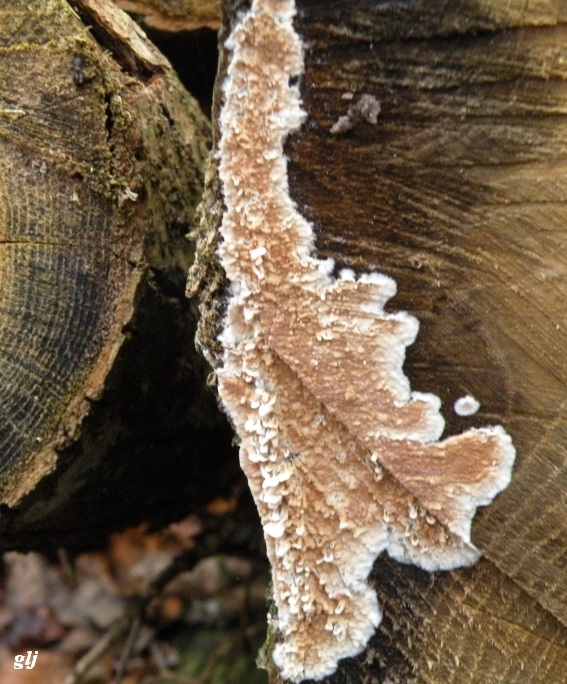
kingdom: Fungi
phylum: Basidiomycota
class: Agaricomycetes
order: Agaricales
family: Physalacriaceae
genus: Cylindrobasidium
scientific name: Cylindrobasidium evolvens
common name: sprækkehinde
